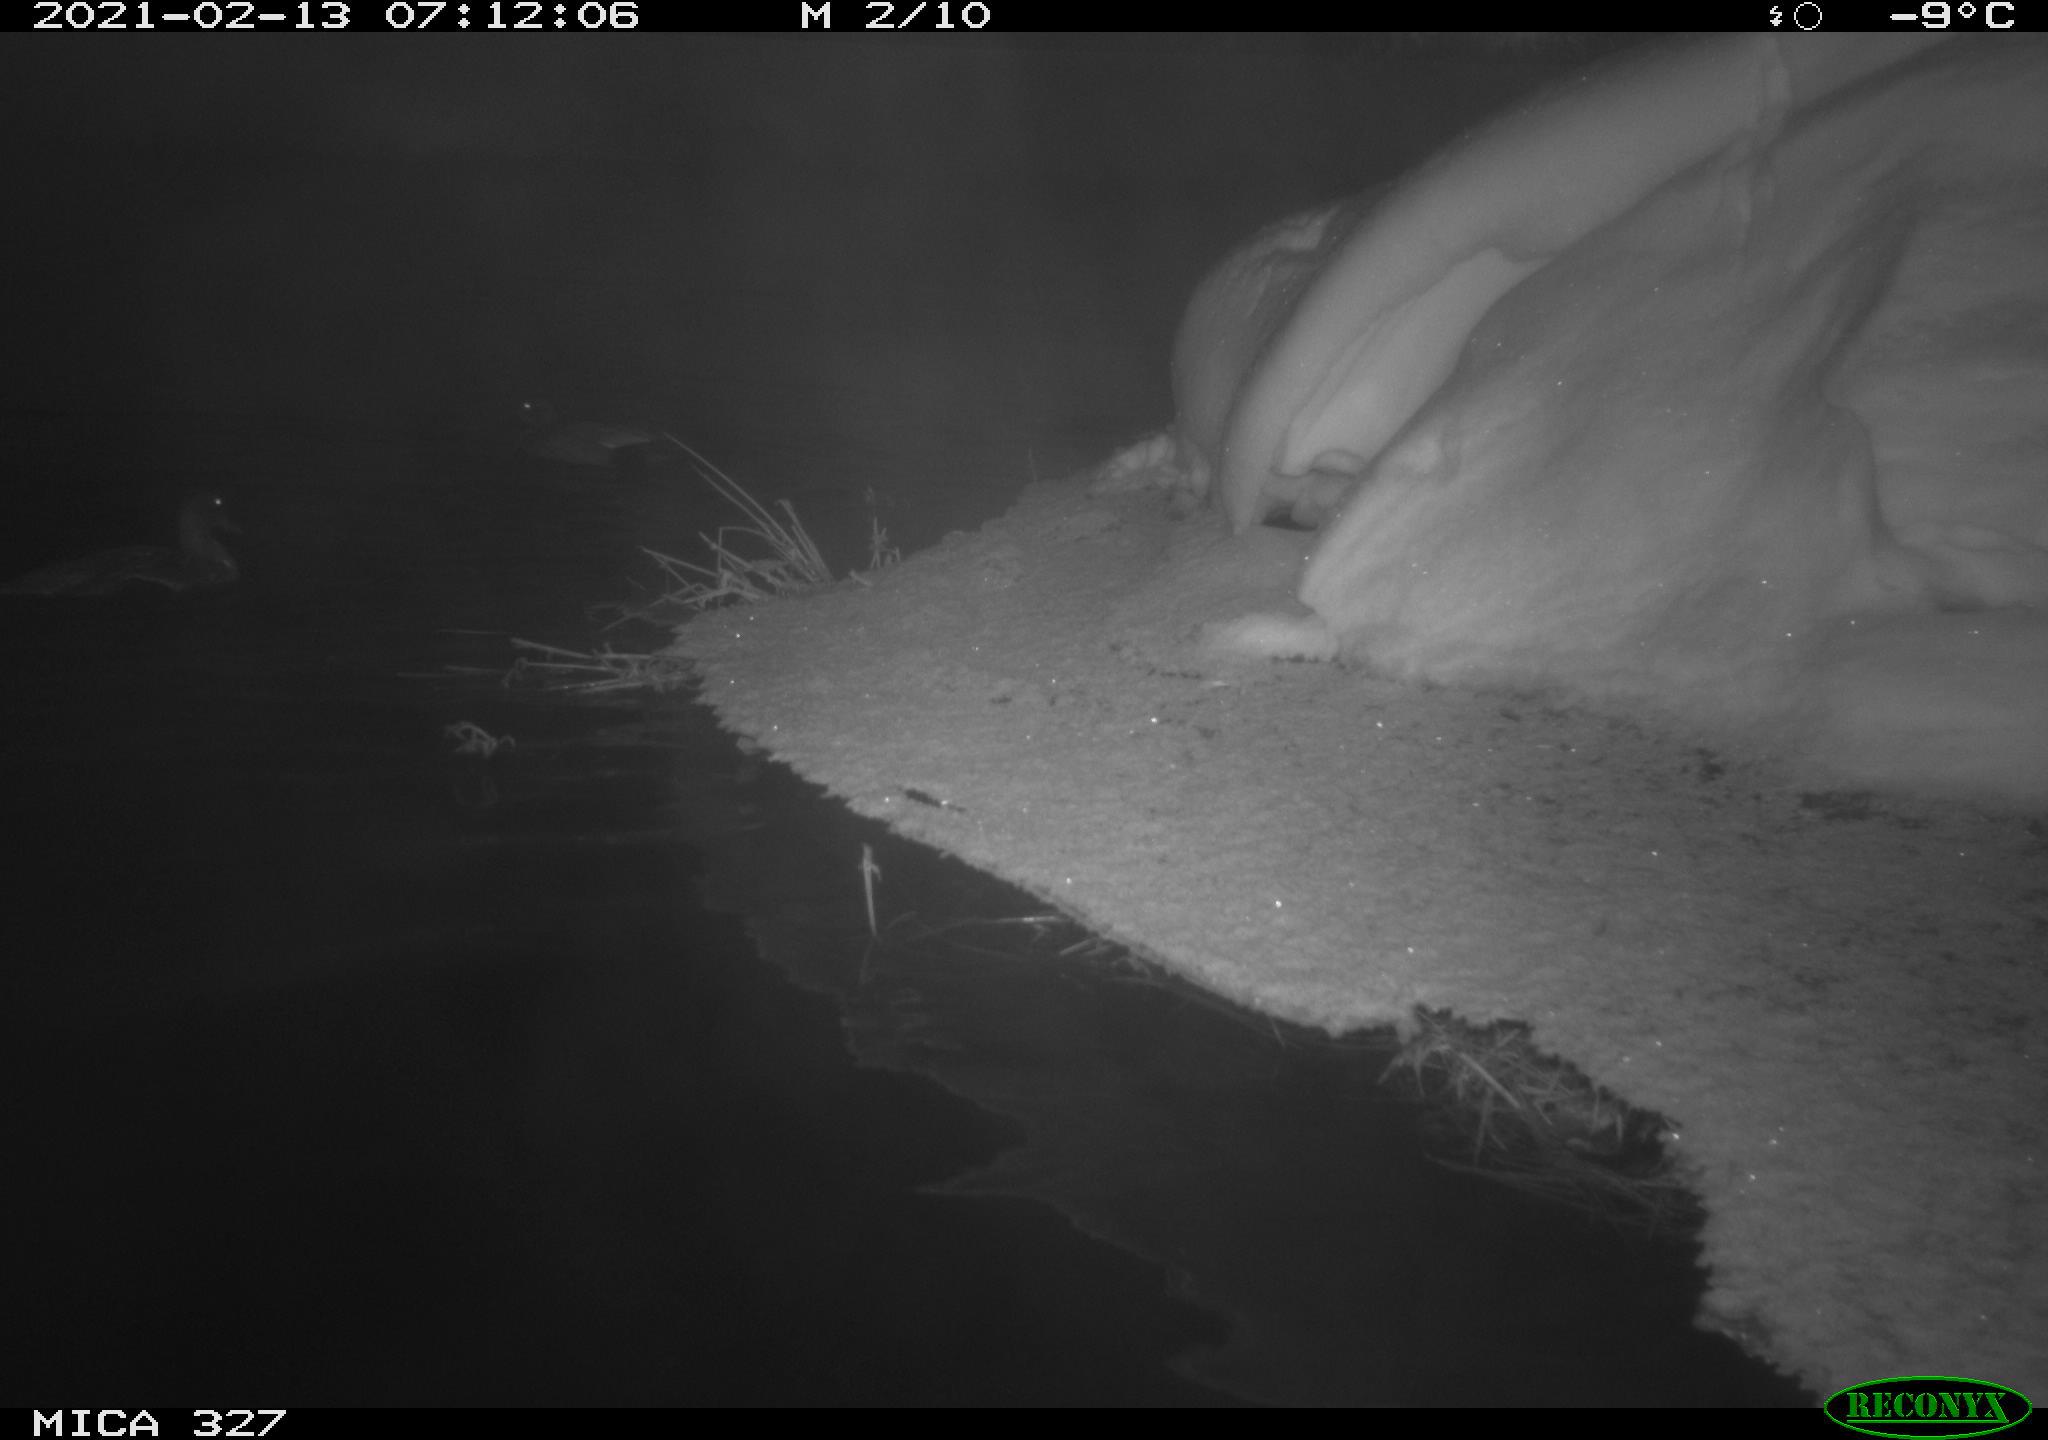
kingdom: Animalia
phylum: Chordata
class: Aves
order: Anseriformes
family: Anatidae
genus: Anas
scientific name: Anas platyrhynchos
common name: Mallard
